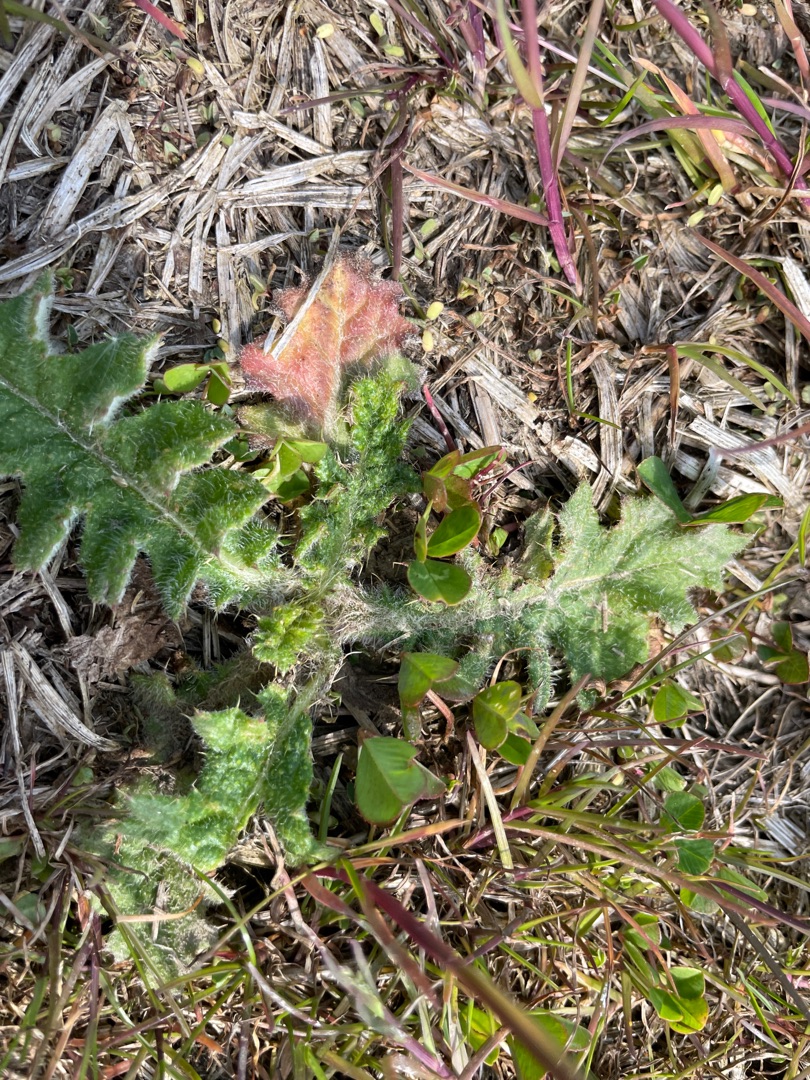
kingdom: Plantae
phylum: Tracheophyta
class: Magnoliopsida
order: Asterales
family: Asteraceae
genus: Cirsium
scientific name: Cirsium vulgare
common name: Horse-tidsel
